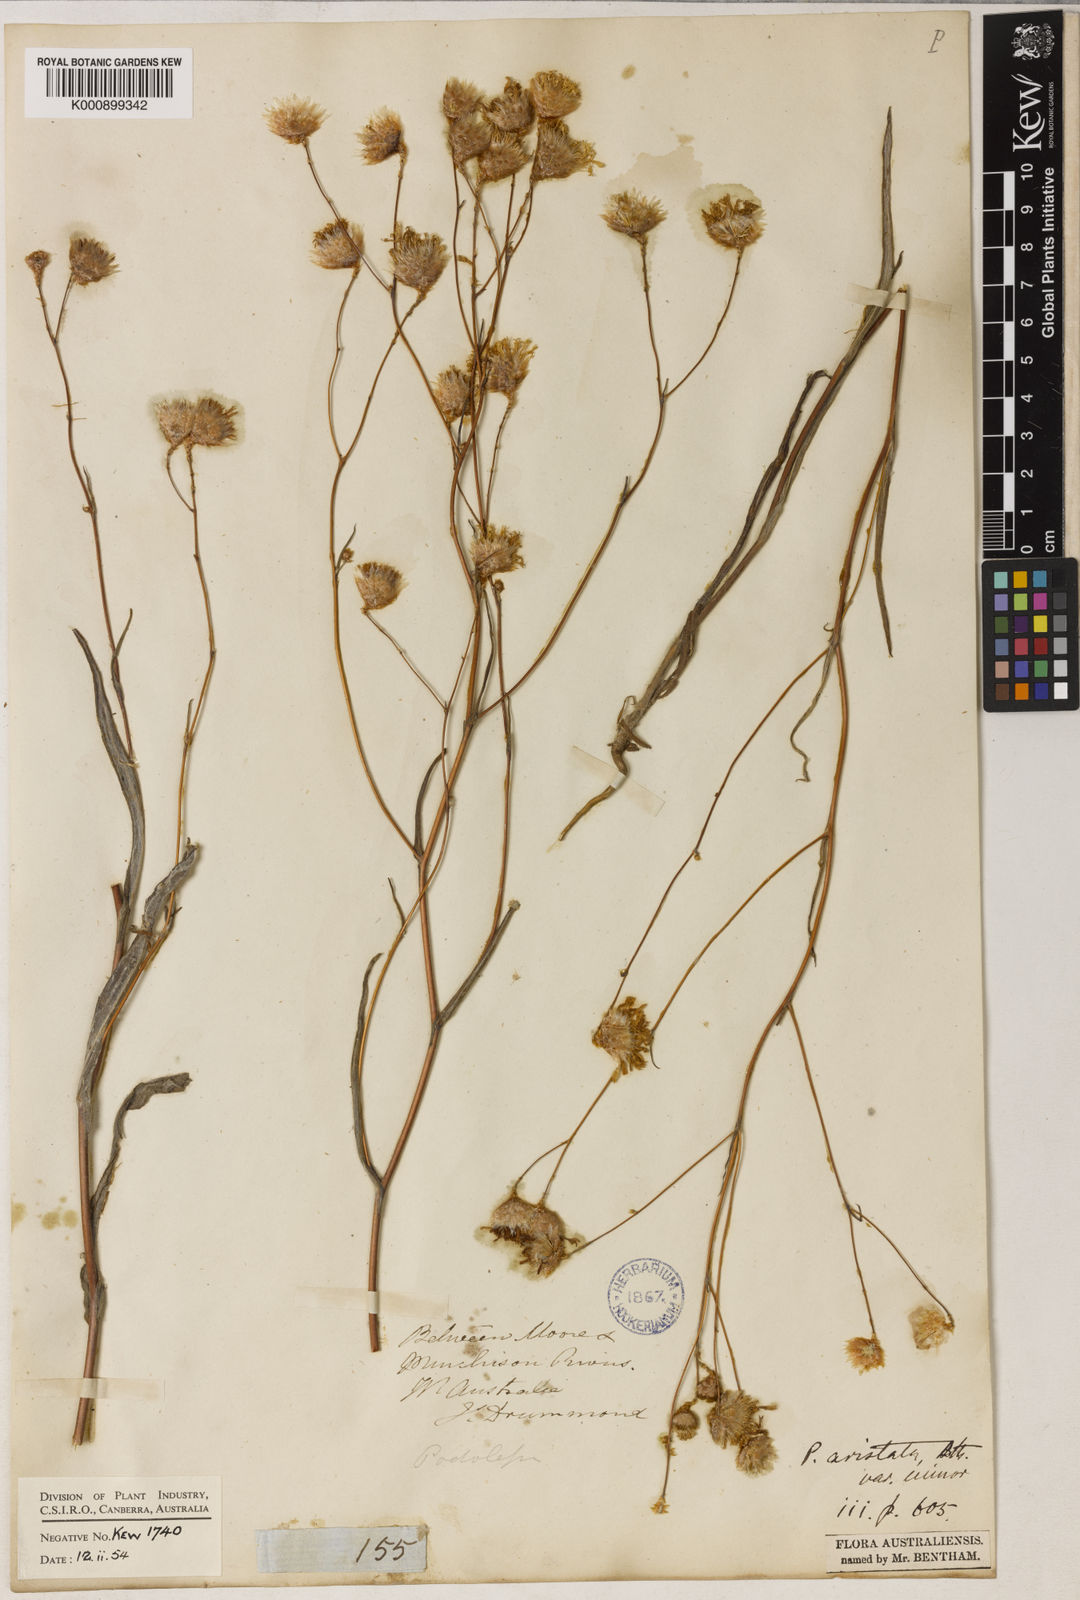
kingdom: Plantae
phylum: Tracheophyta
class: Magnoliopsida
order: Asterales
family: Asteraceae
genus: Podolepis
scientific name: Podolepis aristata
